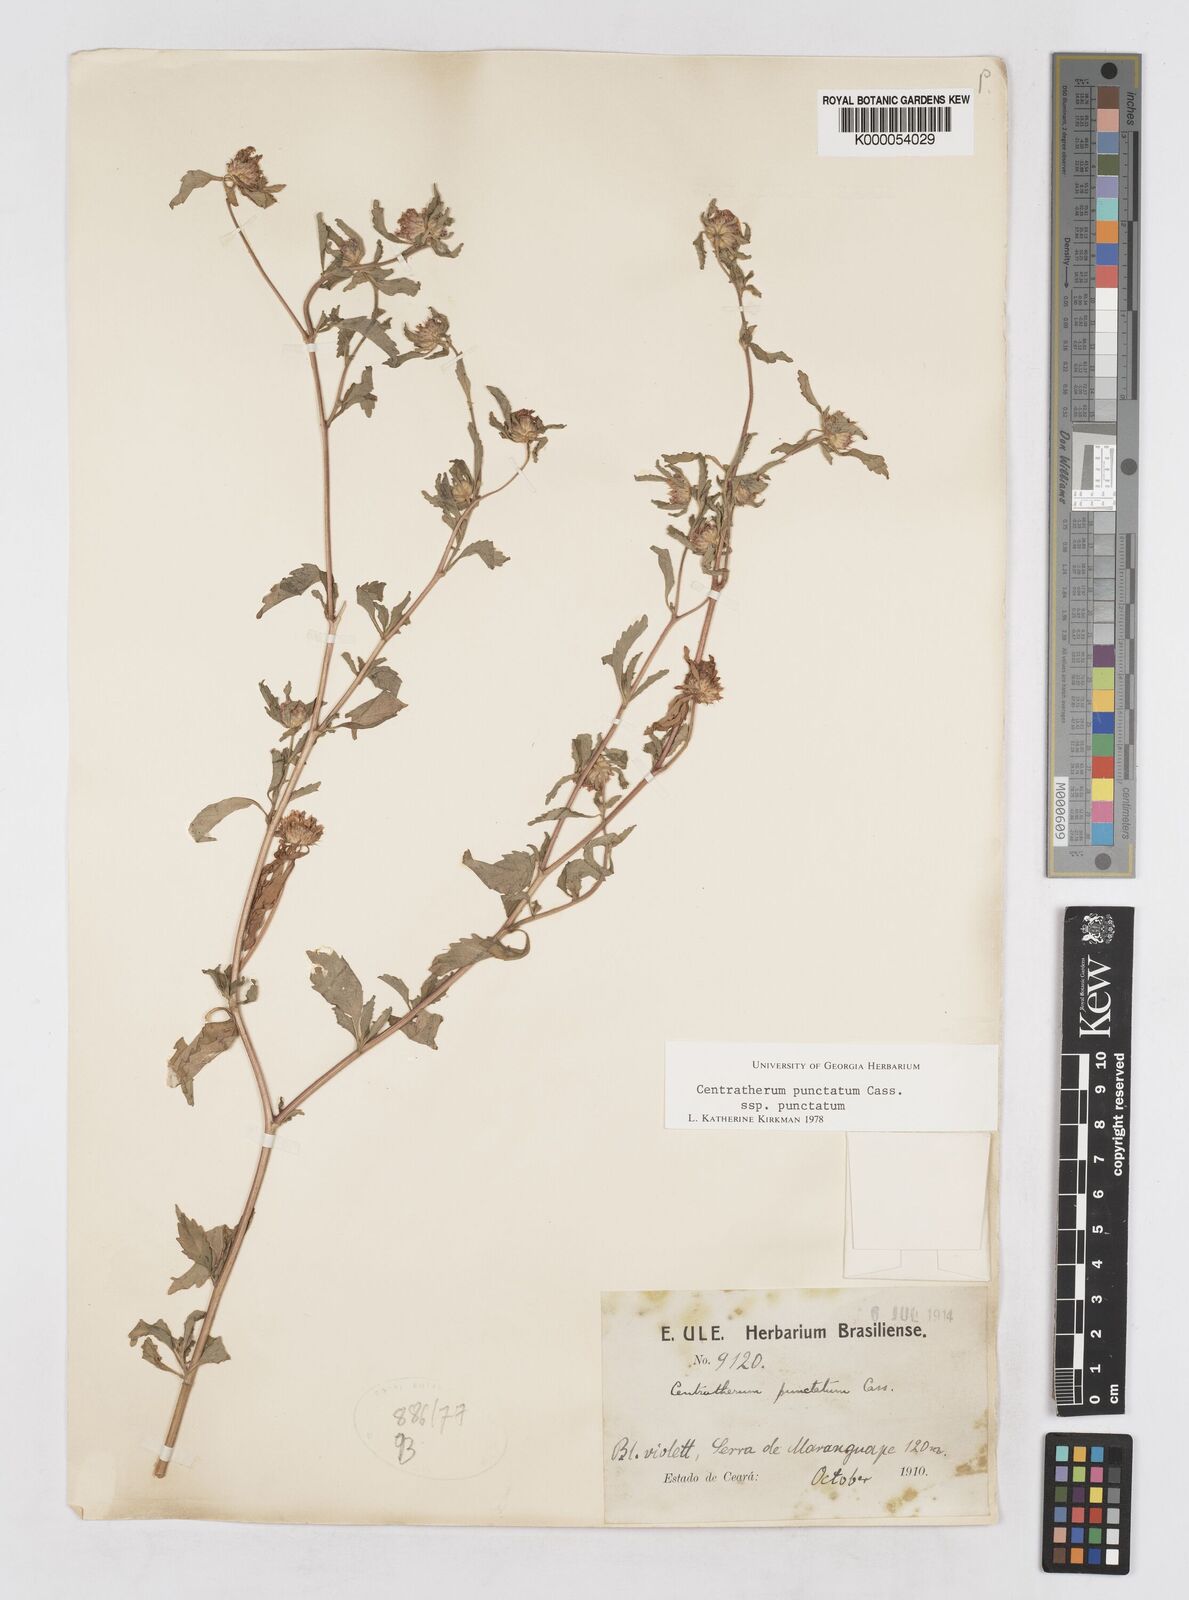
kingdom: Plantae
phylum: Tracheophyta
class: Magnoliopsida
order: Asterales
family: Asteraceae
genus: Centratherum
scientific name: Centratherum punctatum
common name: Larkdaisy
